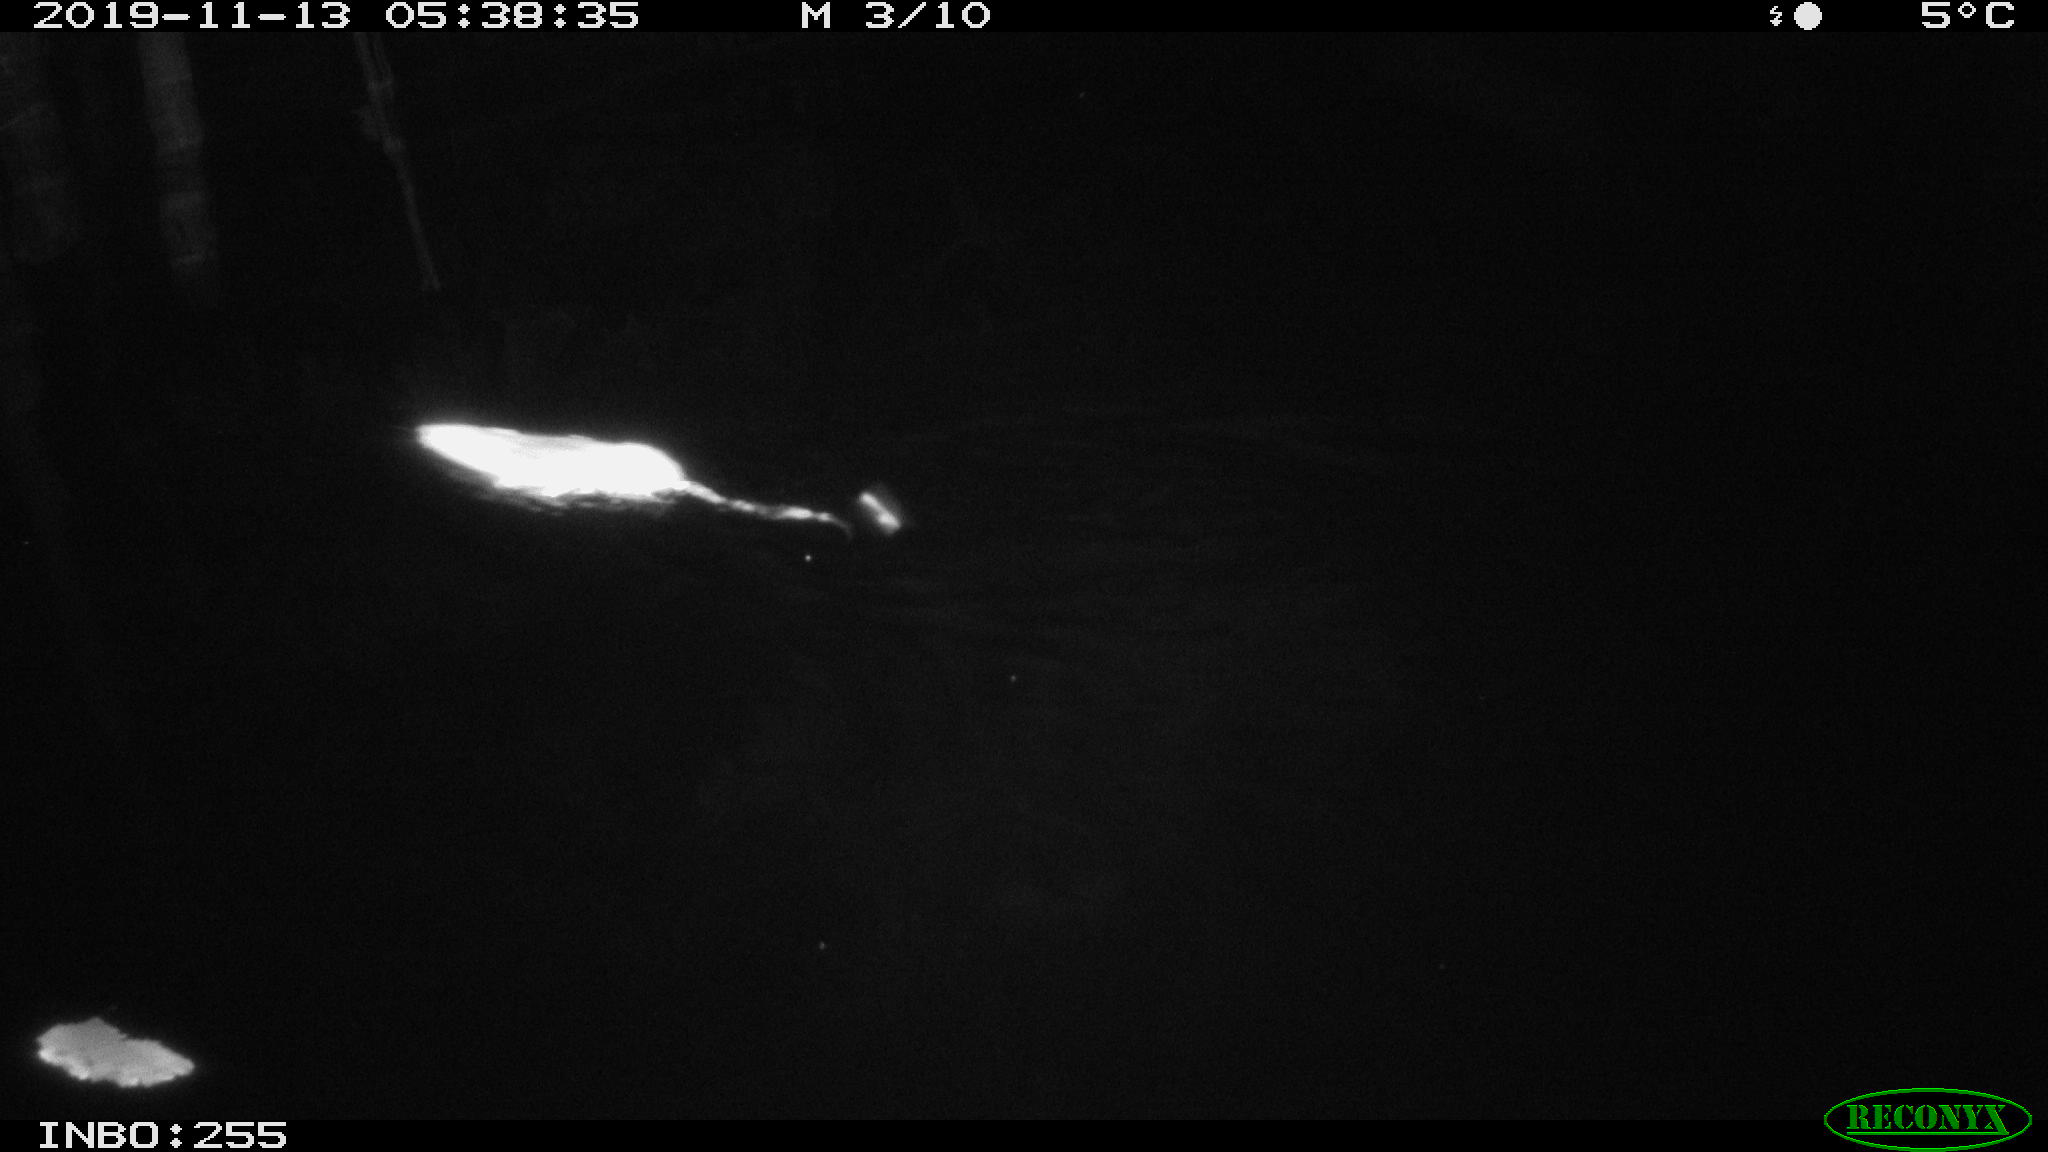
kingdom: Animalia
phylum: Chordata
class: Mammalia
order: Rodentia
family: Muridae
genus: Rattus
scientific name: Rattus norvegicus
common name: Brown rat
